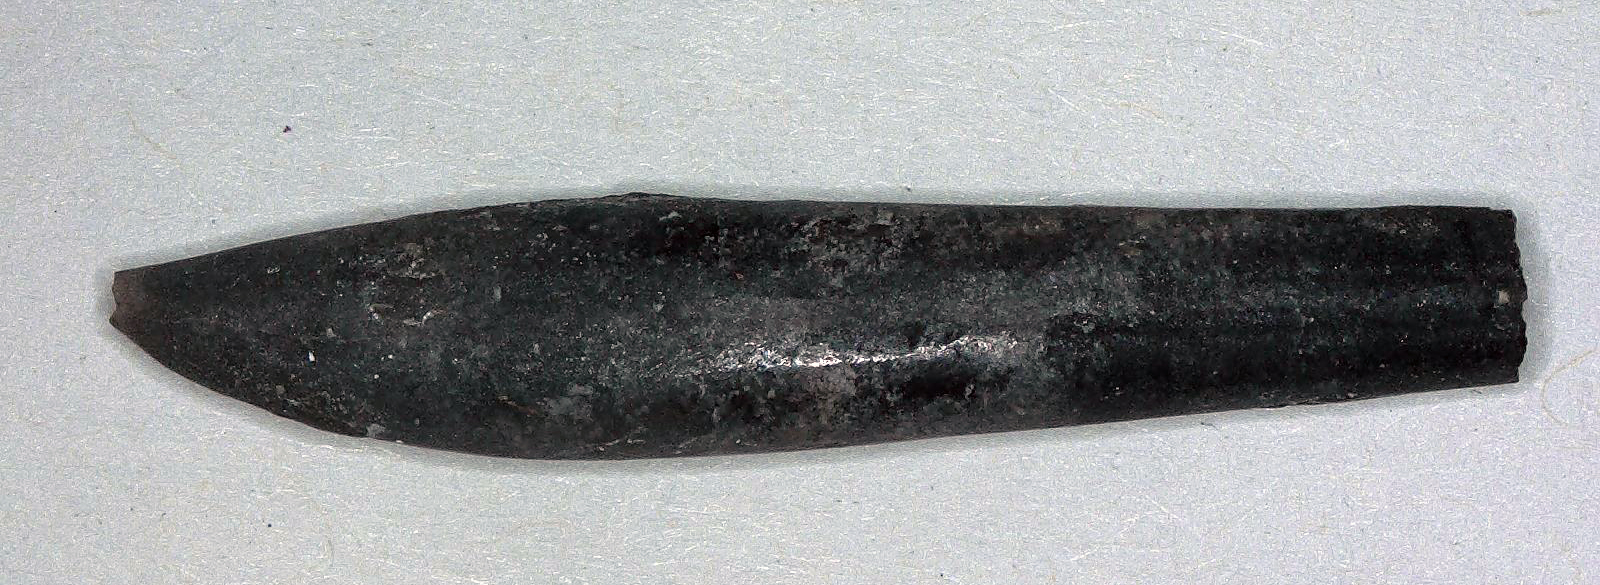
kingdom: Animalia
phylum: Mollusca
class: Cephalopoda
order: Belemnitida
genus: Rhabdobelus
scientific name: Rhabdobelus donovani
